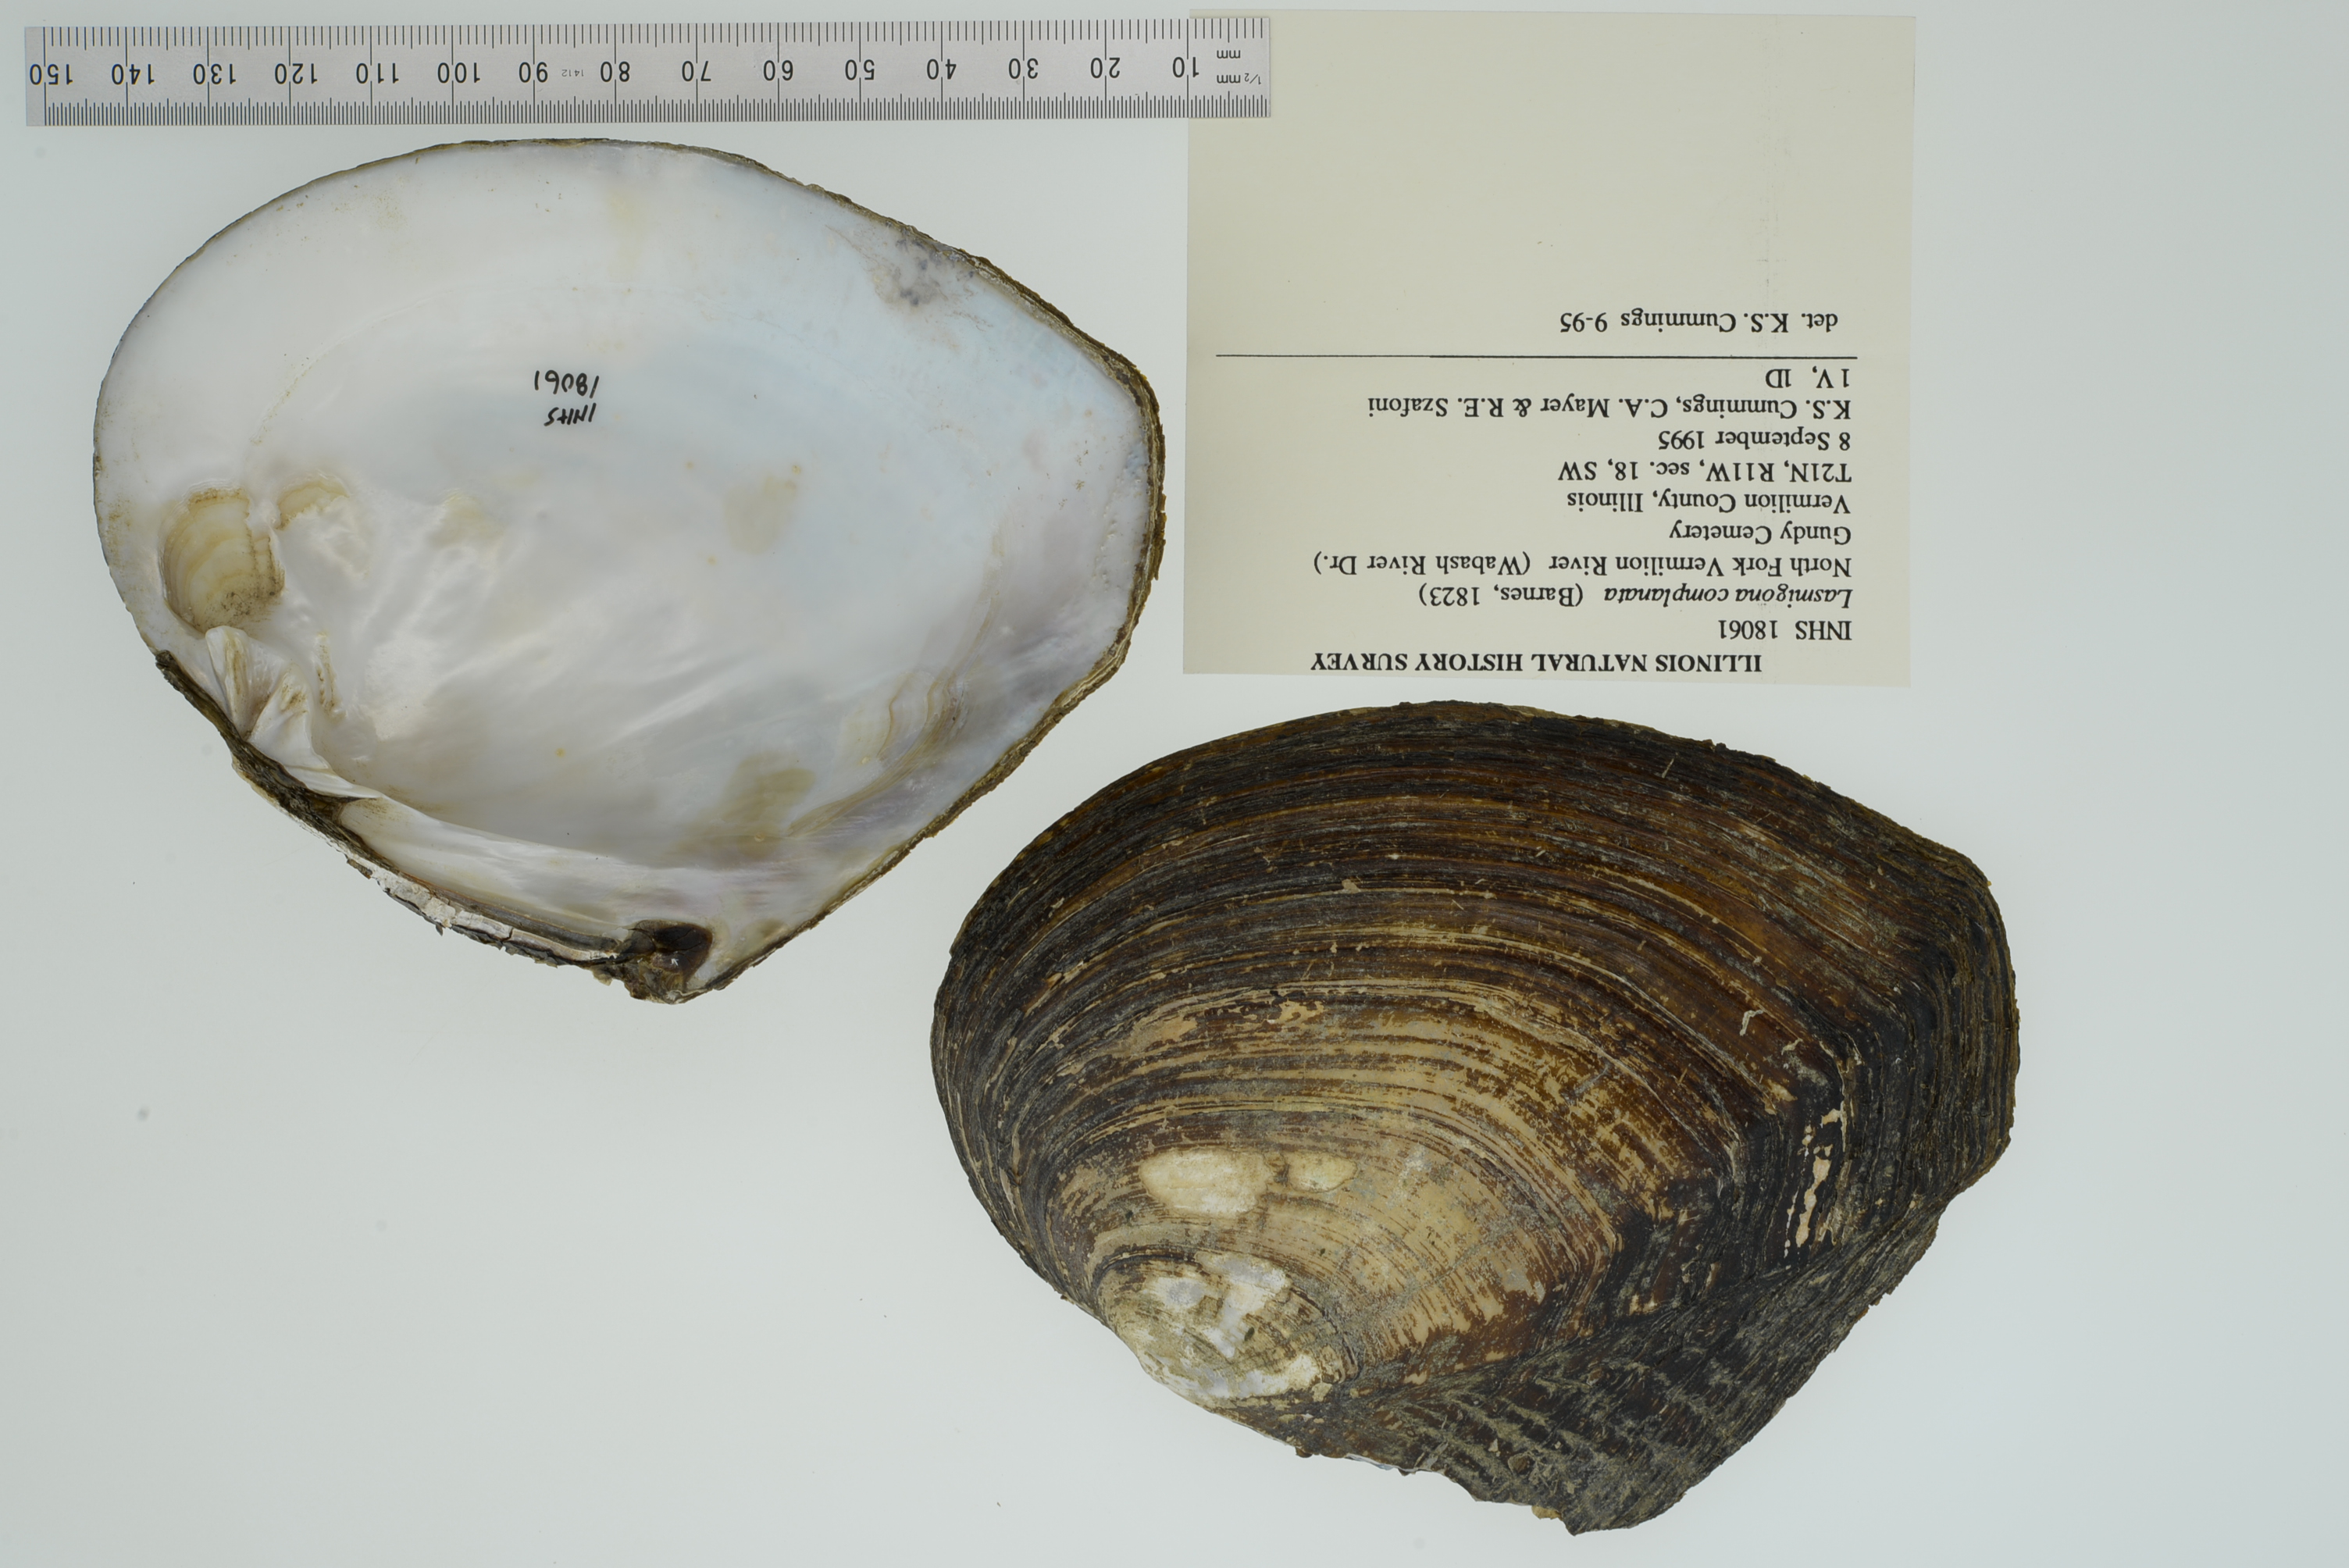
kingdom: Animalia
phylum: Mollusca
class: Bivalvia
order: Unionida
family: Unionidae
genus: Lasmigona
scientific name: Lasmigona complanata
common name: White heelsplitter
